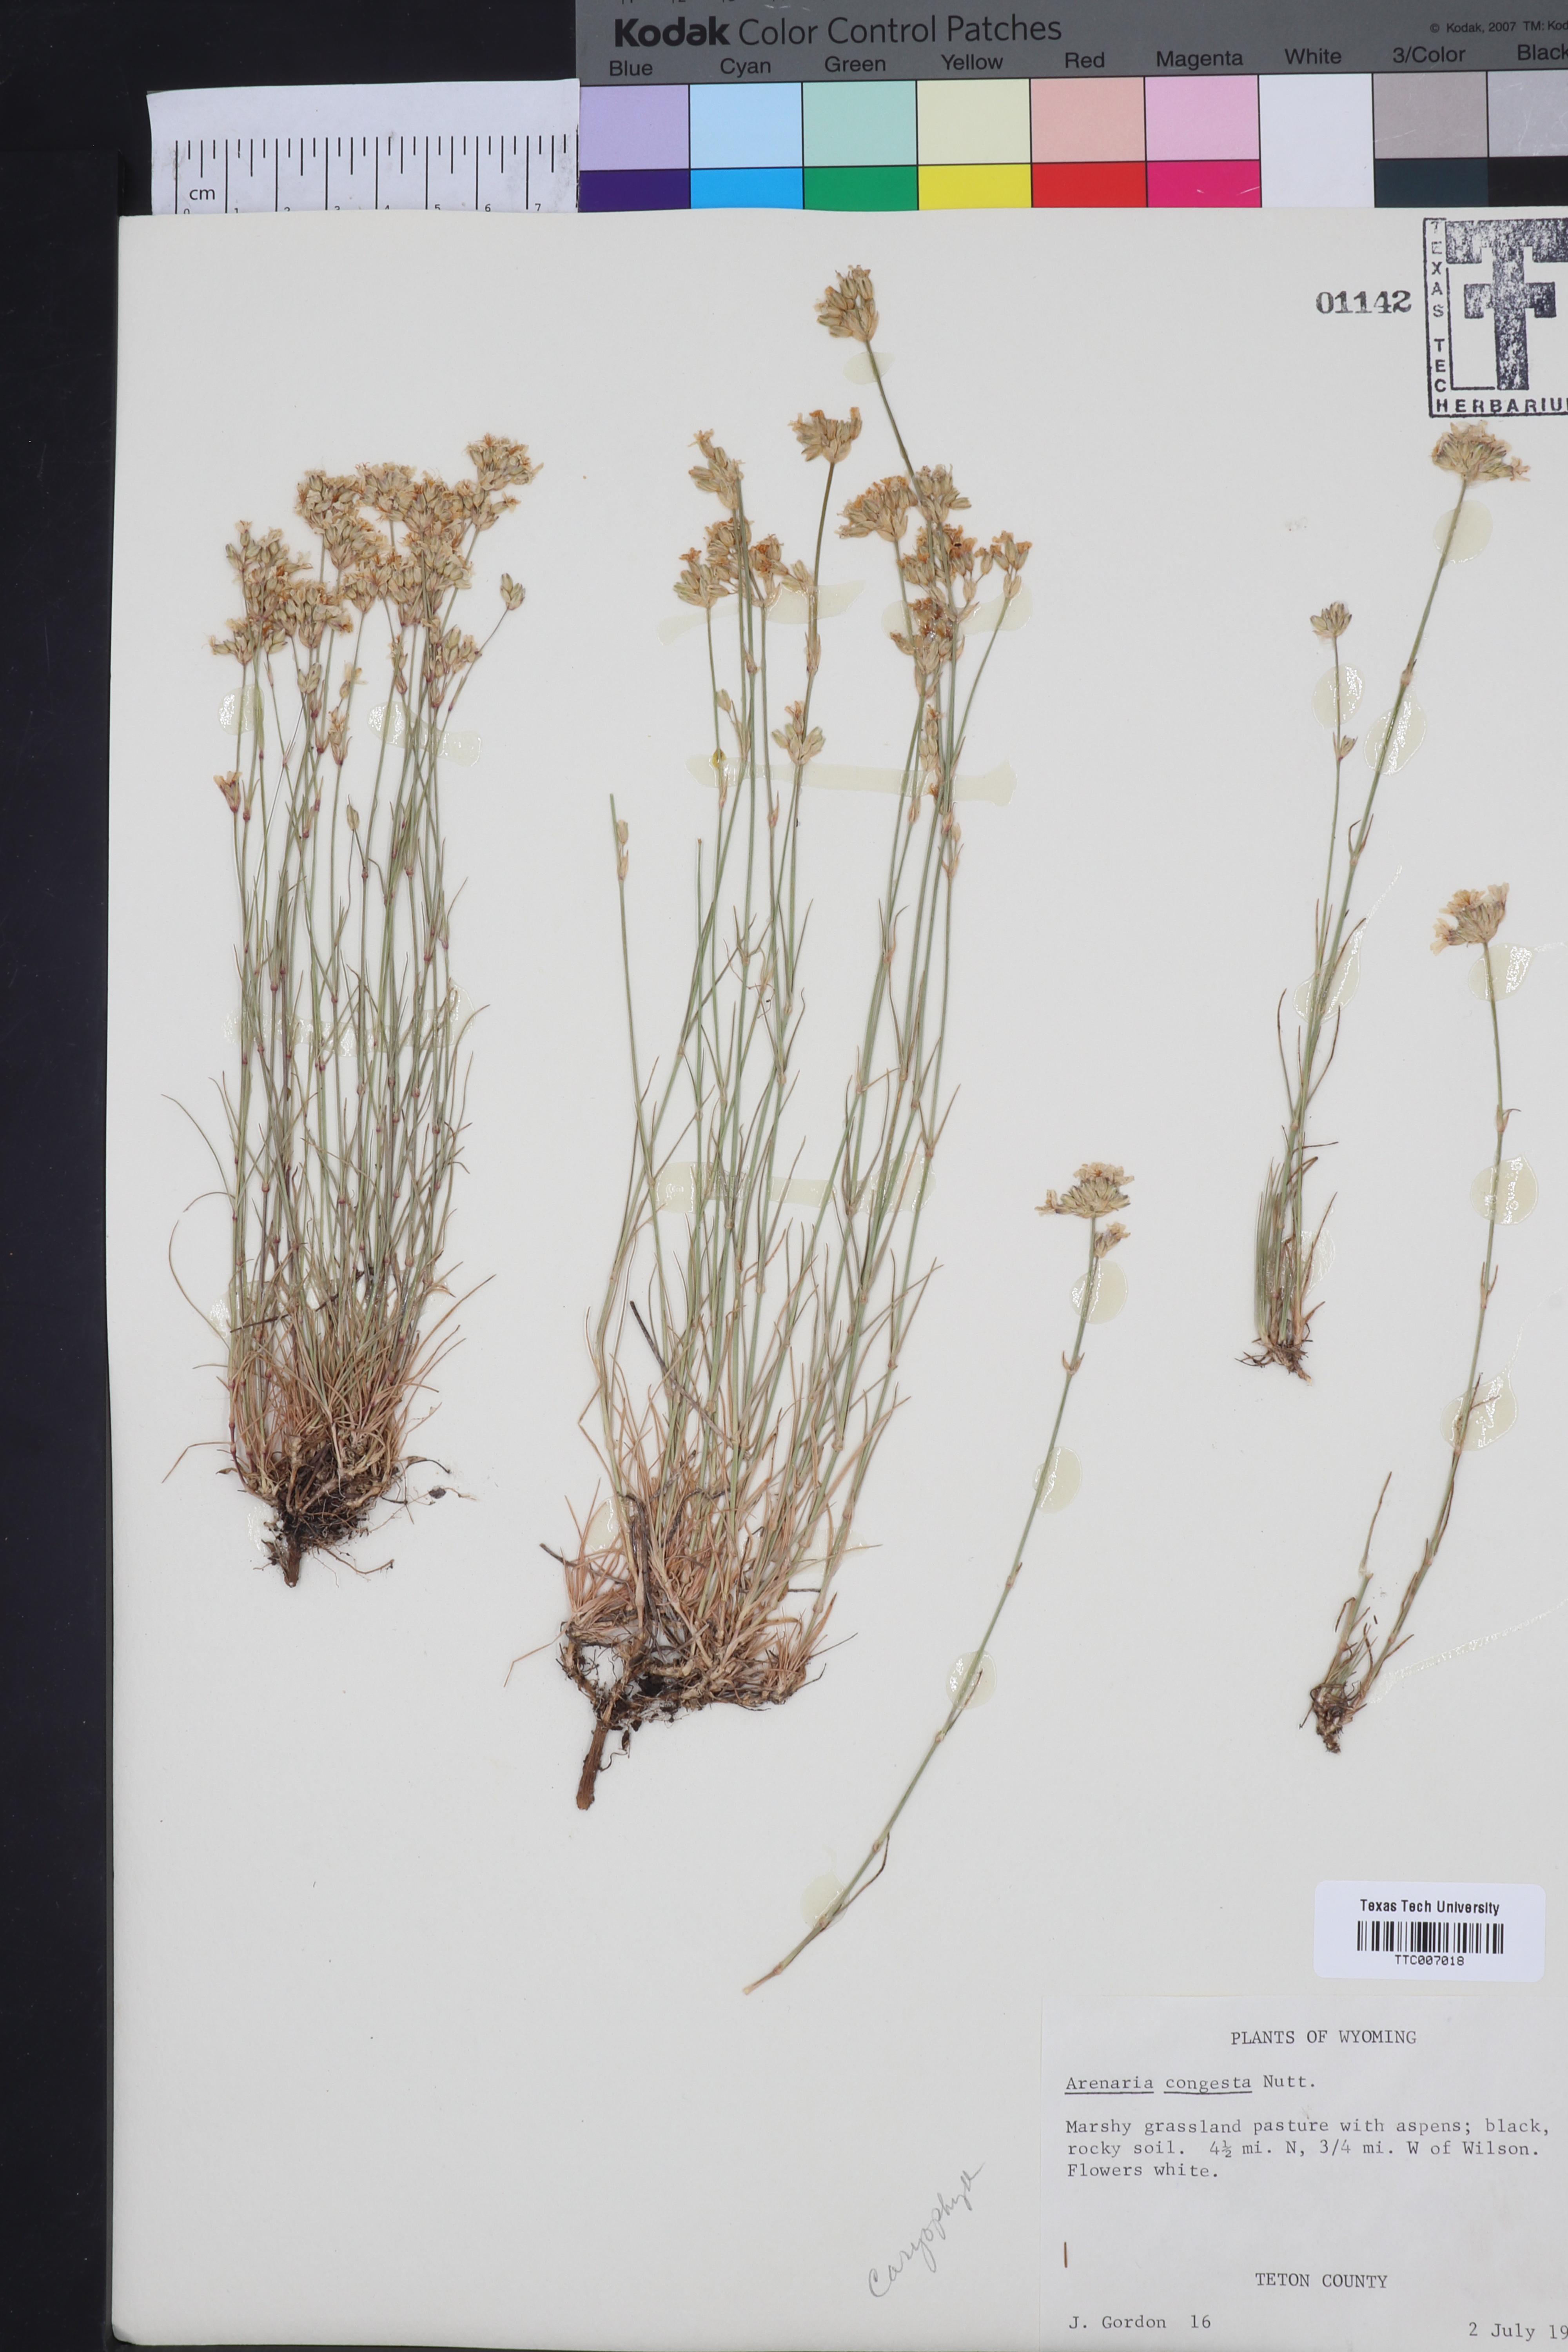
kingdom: Plantae
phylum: Tracheophyta
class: Magnoliopsida
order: Caryophyllales
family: Caryophyllaceae
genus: Eremogone
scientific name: Eremogone congesta
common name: Ballhead sandwort
